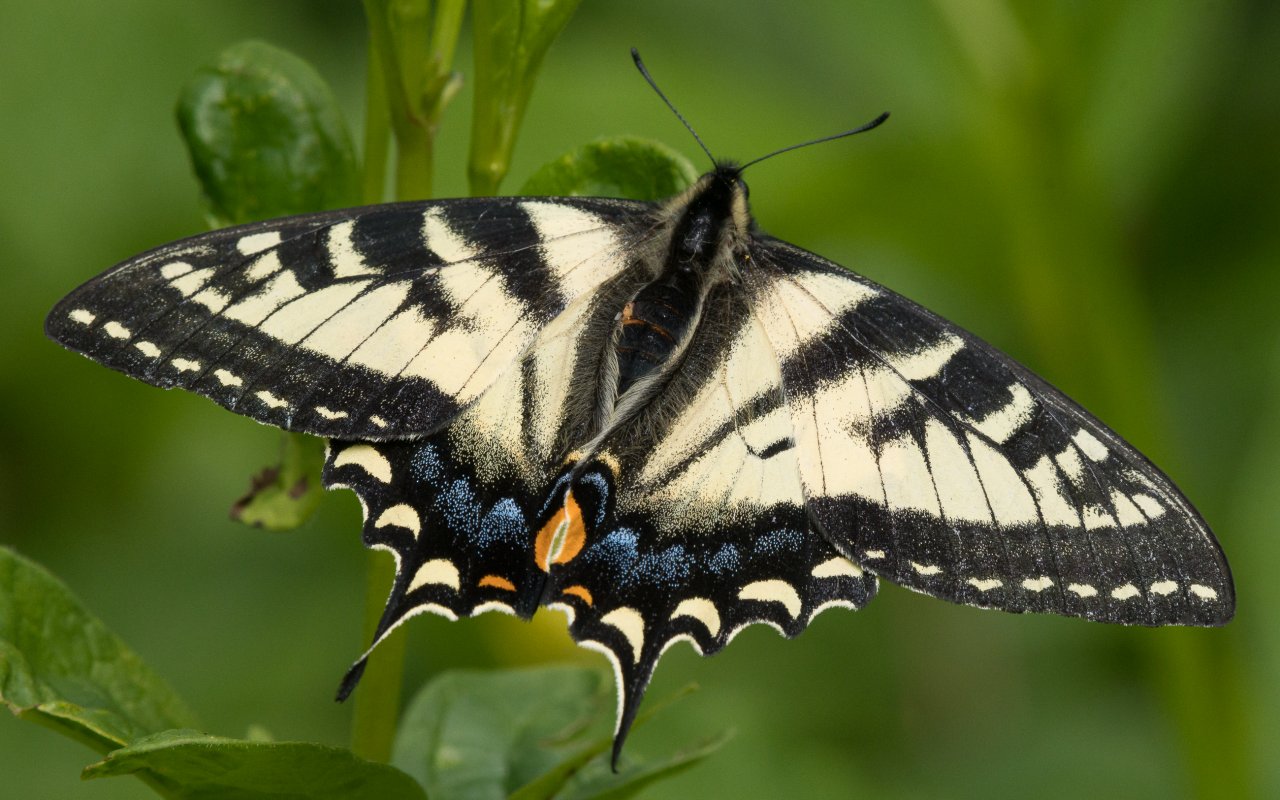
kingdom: Animalia
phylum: Arthropoda
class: Insecta
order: Lepidoptera
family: Papilionidae
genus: Pterourus
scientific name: Pterourus canadensis
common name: Canadian Tiger Swallowtail
